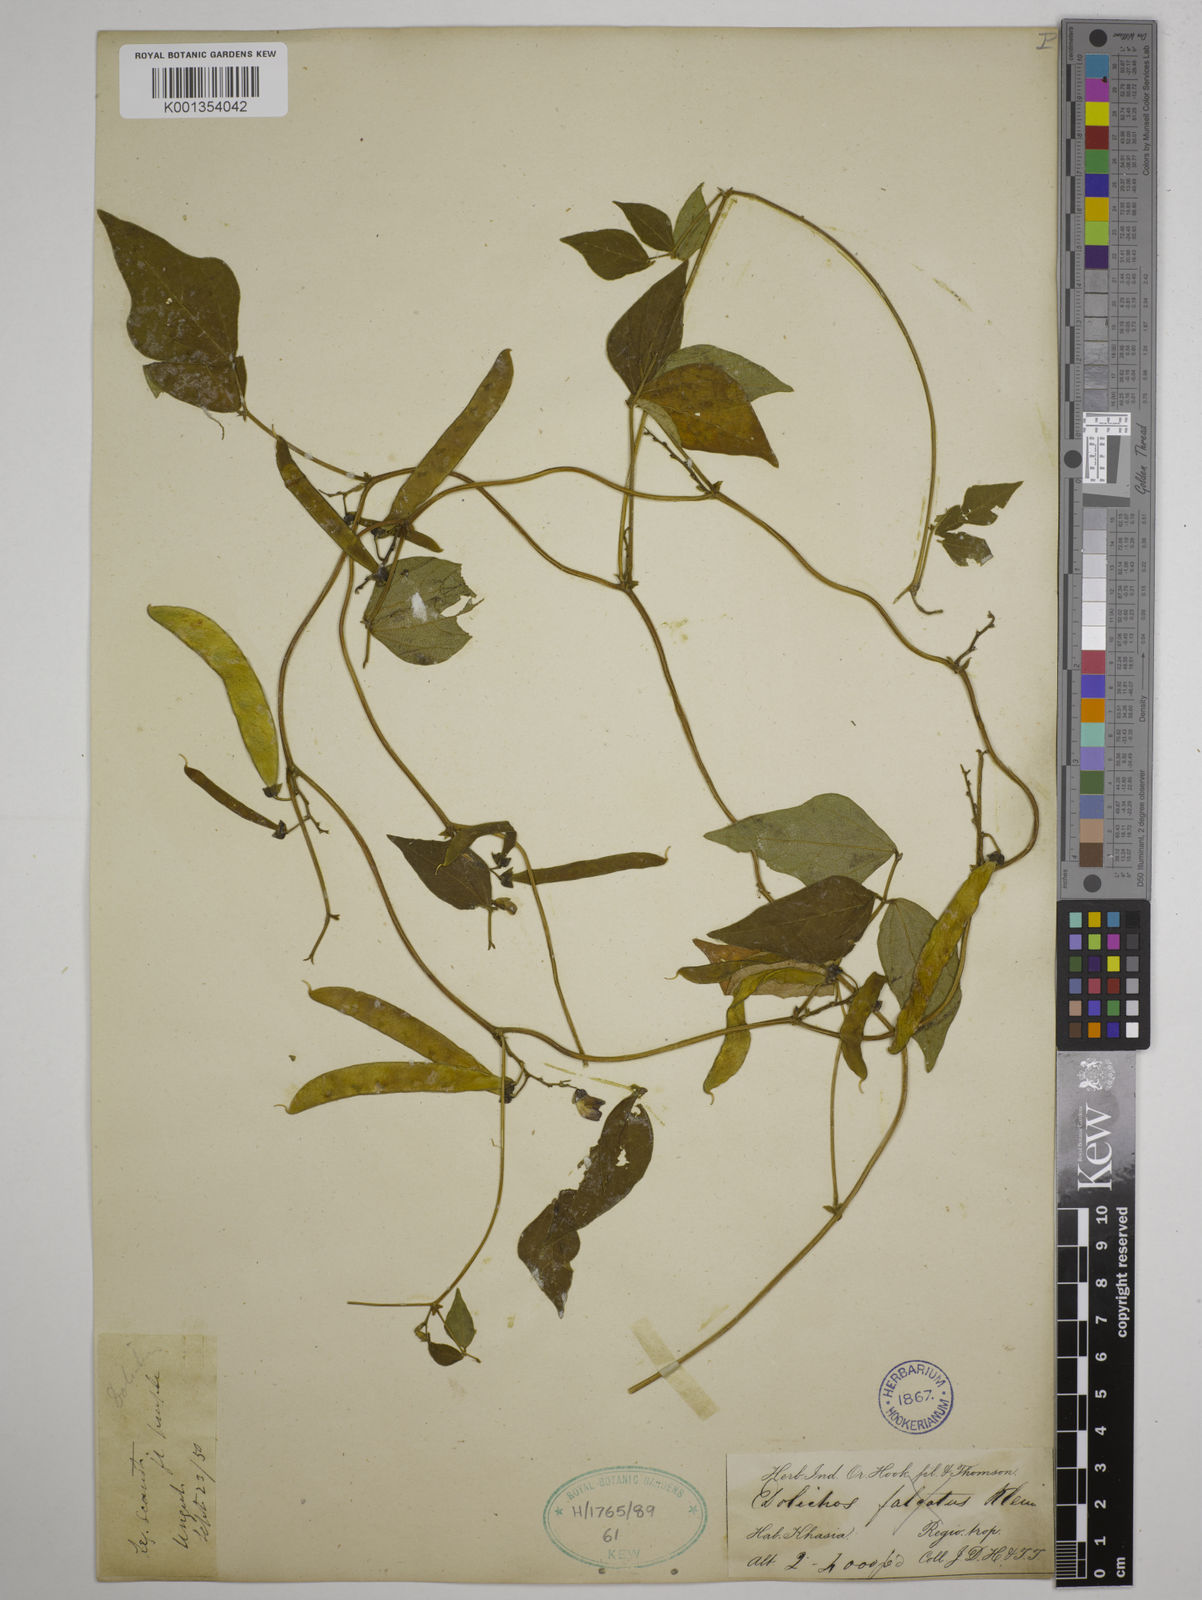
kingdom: Plantae
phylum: Tracheophyta
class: Magnoliopsida
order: Fabales
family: Fabaceae
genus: Dolichos
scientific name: Dolichos tenuicaulis
